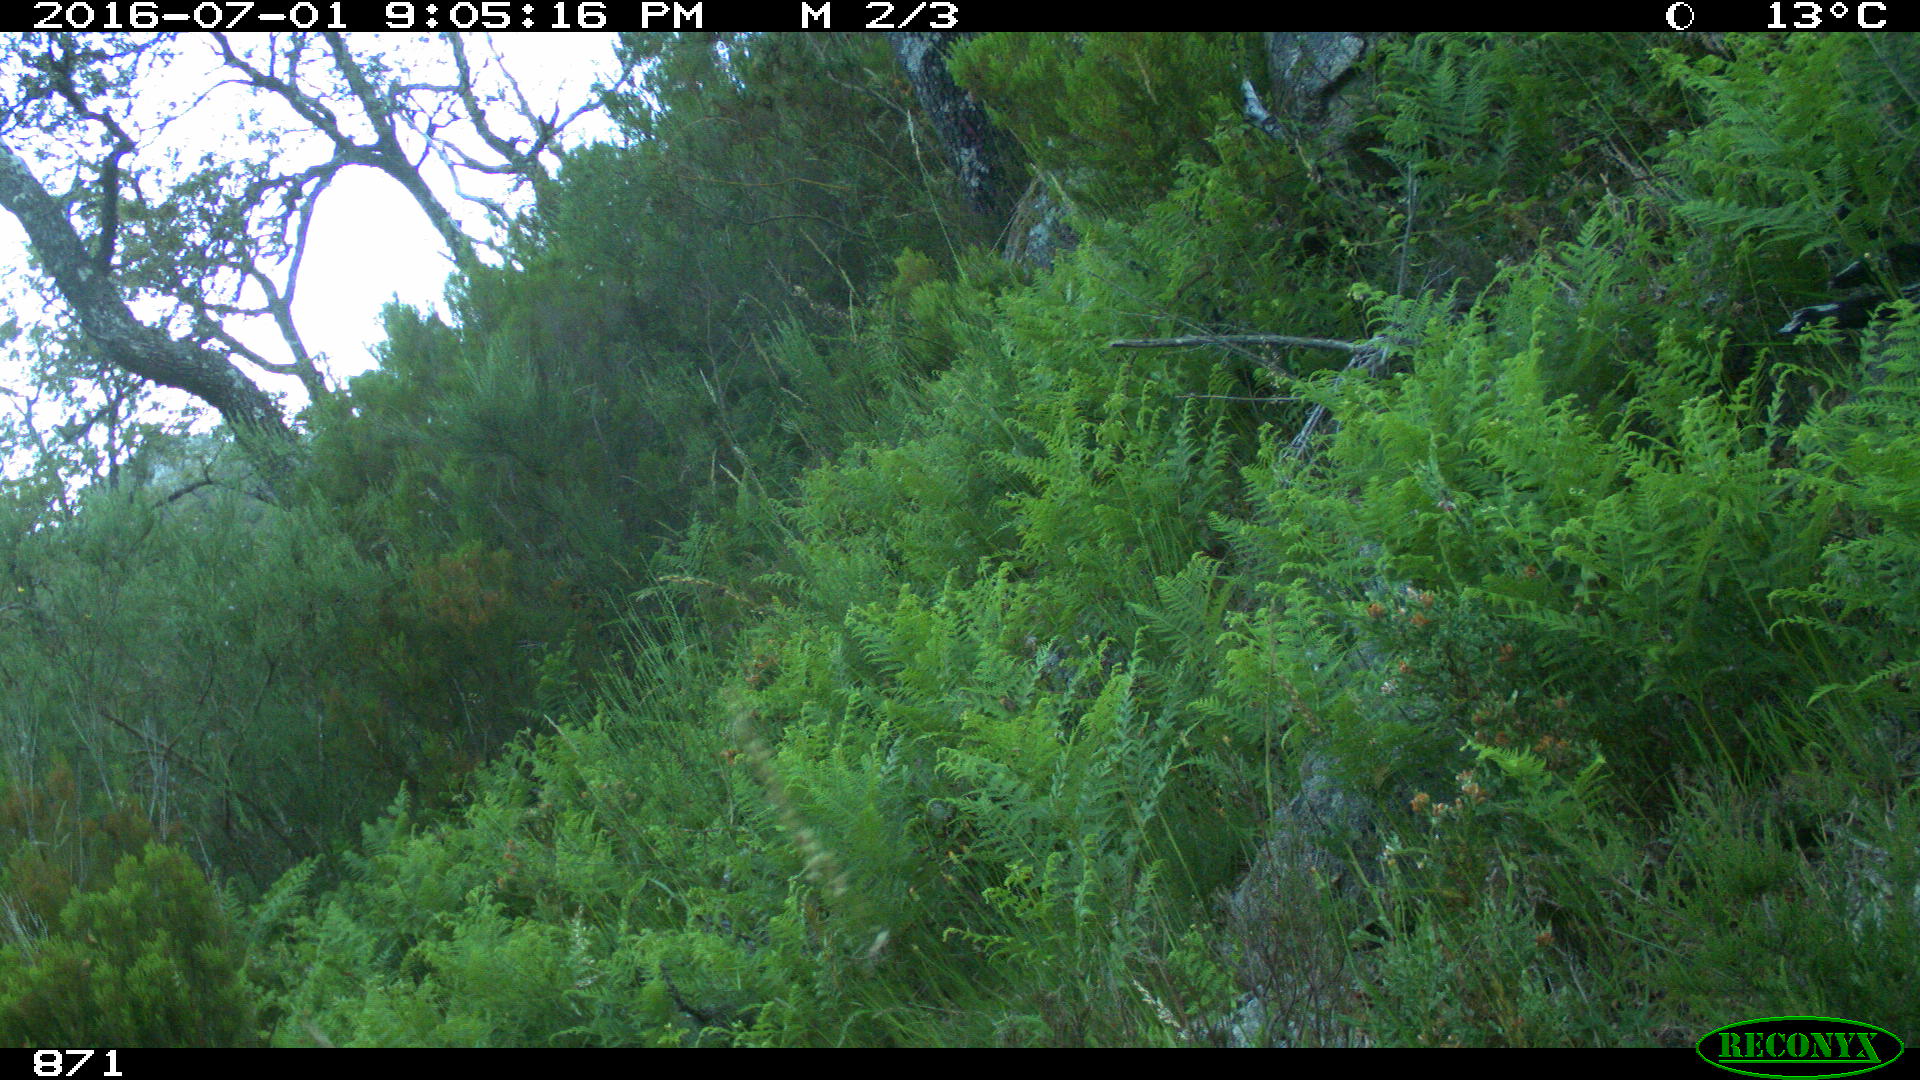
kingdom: Animalia
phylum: Chordata
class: Mammalia
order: Artiodactyla
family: Cervidae
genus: Capreolus
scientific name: Capreolus capreolus
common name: Western roe deer
